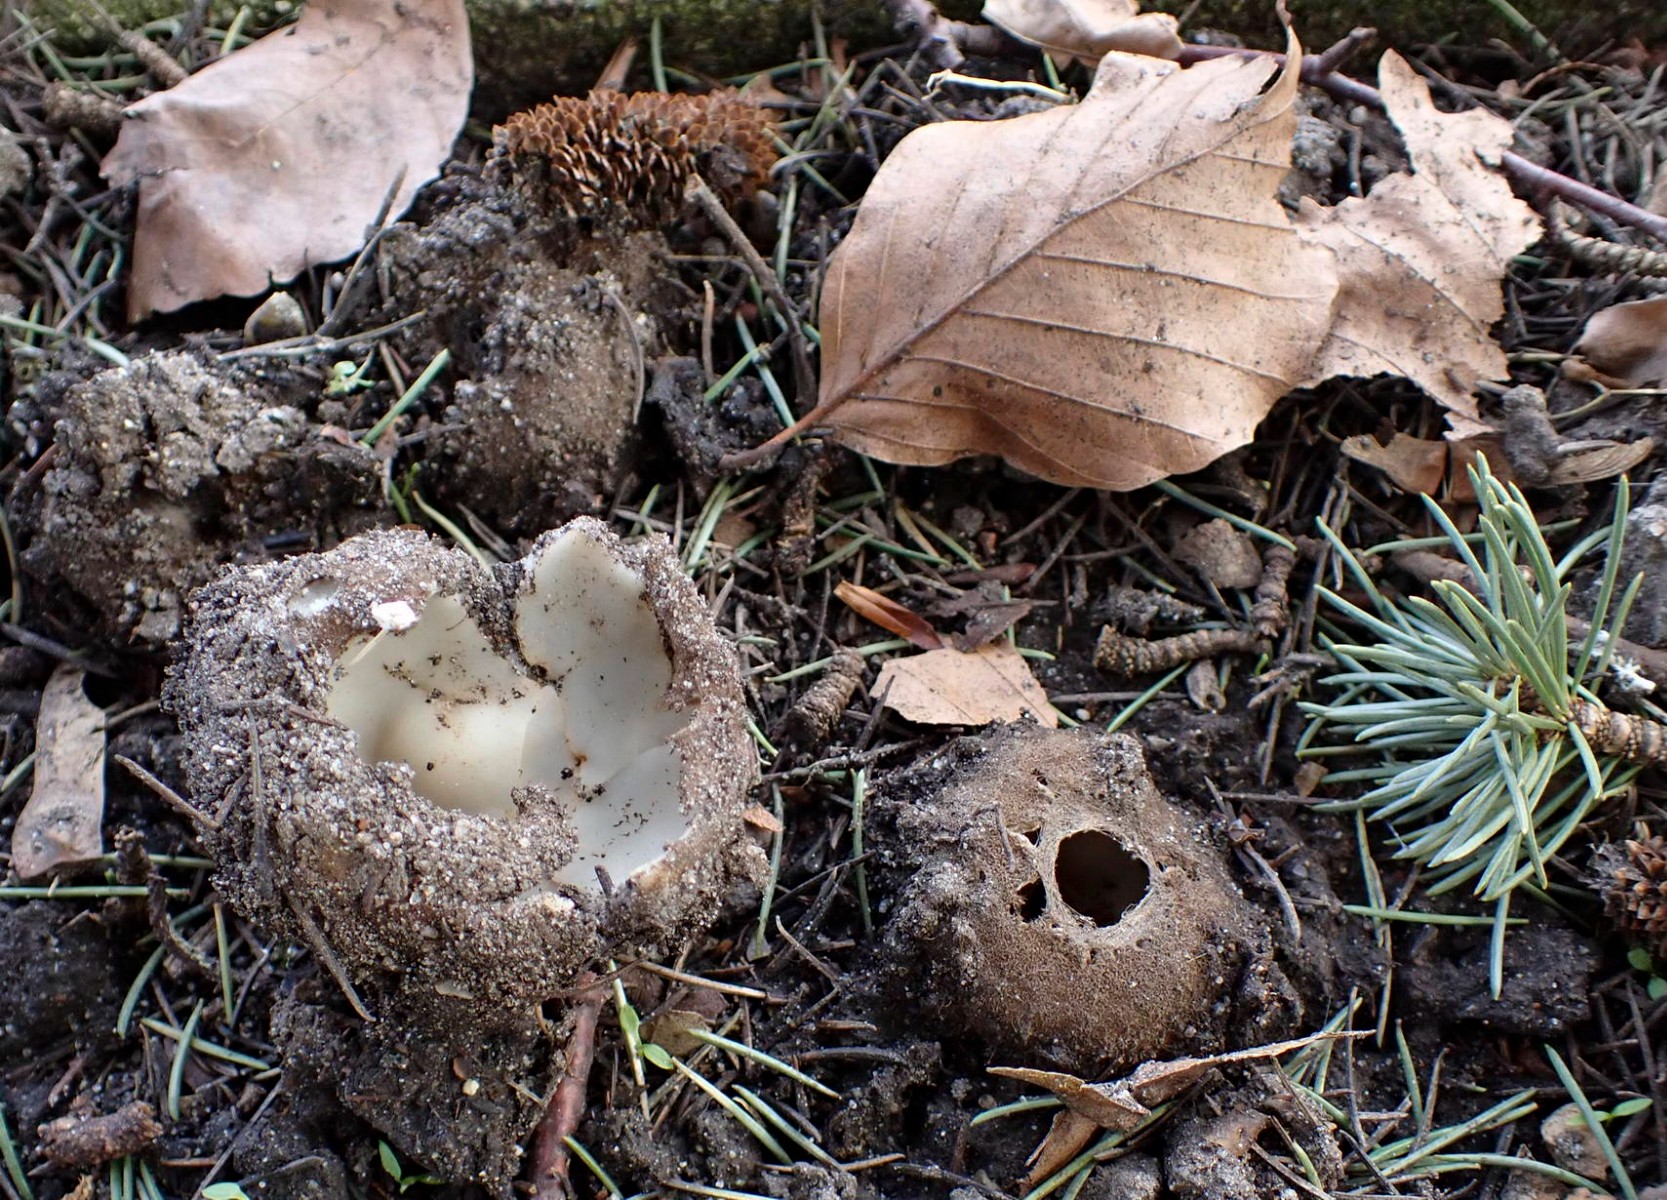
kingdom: Fungi
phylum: Ascomycota
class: Pezizomycetes
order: Pezizales
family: Pyronemataceae
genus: Geopora
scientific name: Geopora sumneriana
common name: vår-jordbæger
